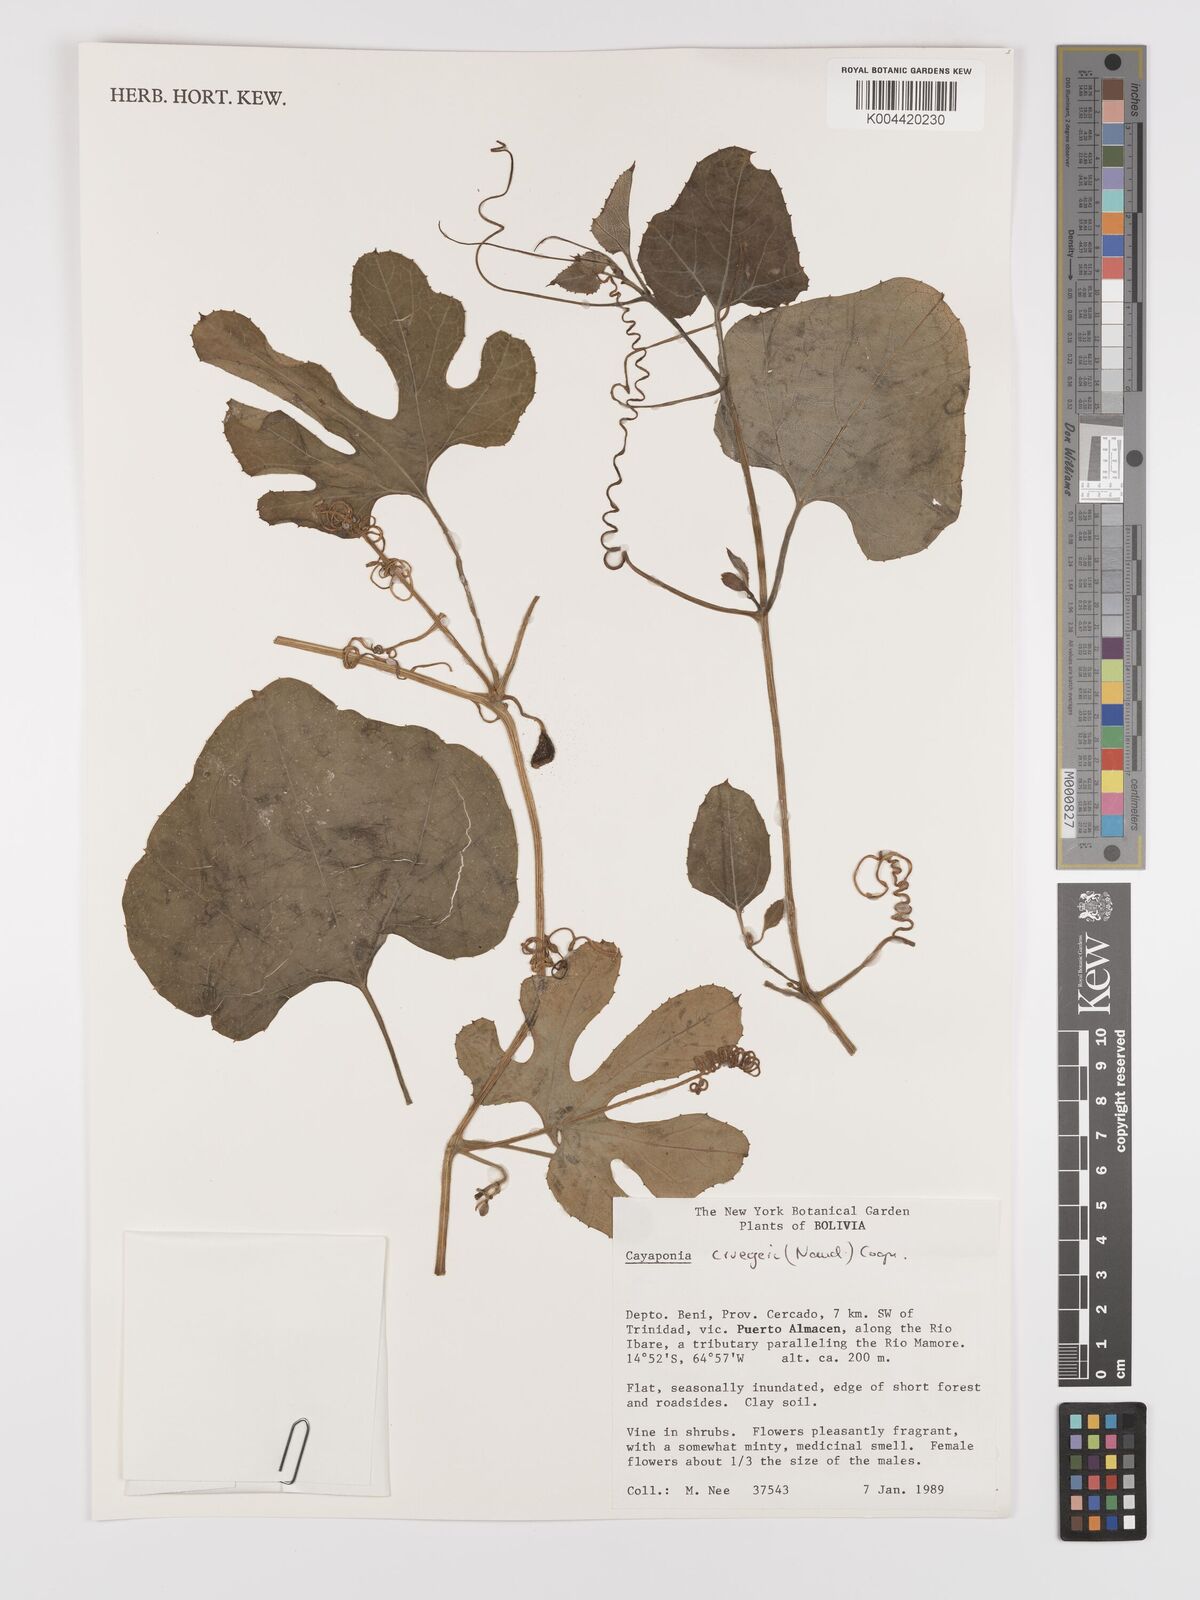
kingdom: Plantae
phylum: Tracheophyta
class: Magnoliopsida
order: Cucurbitales
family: Cucurbitaceae
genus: Cayaponia
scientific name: Cayaponia cruegeri
